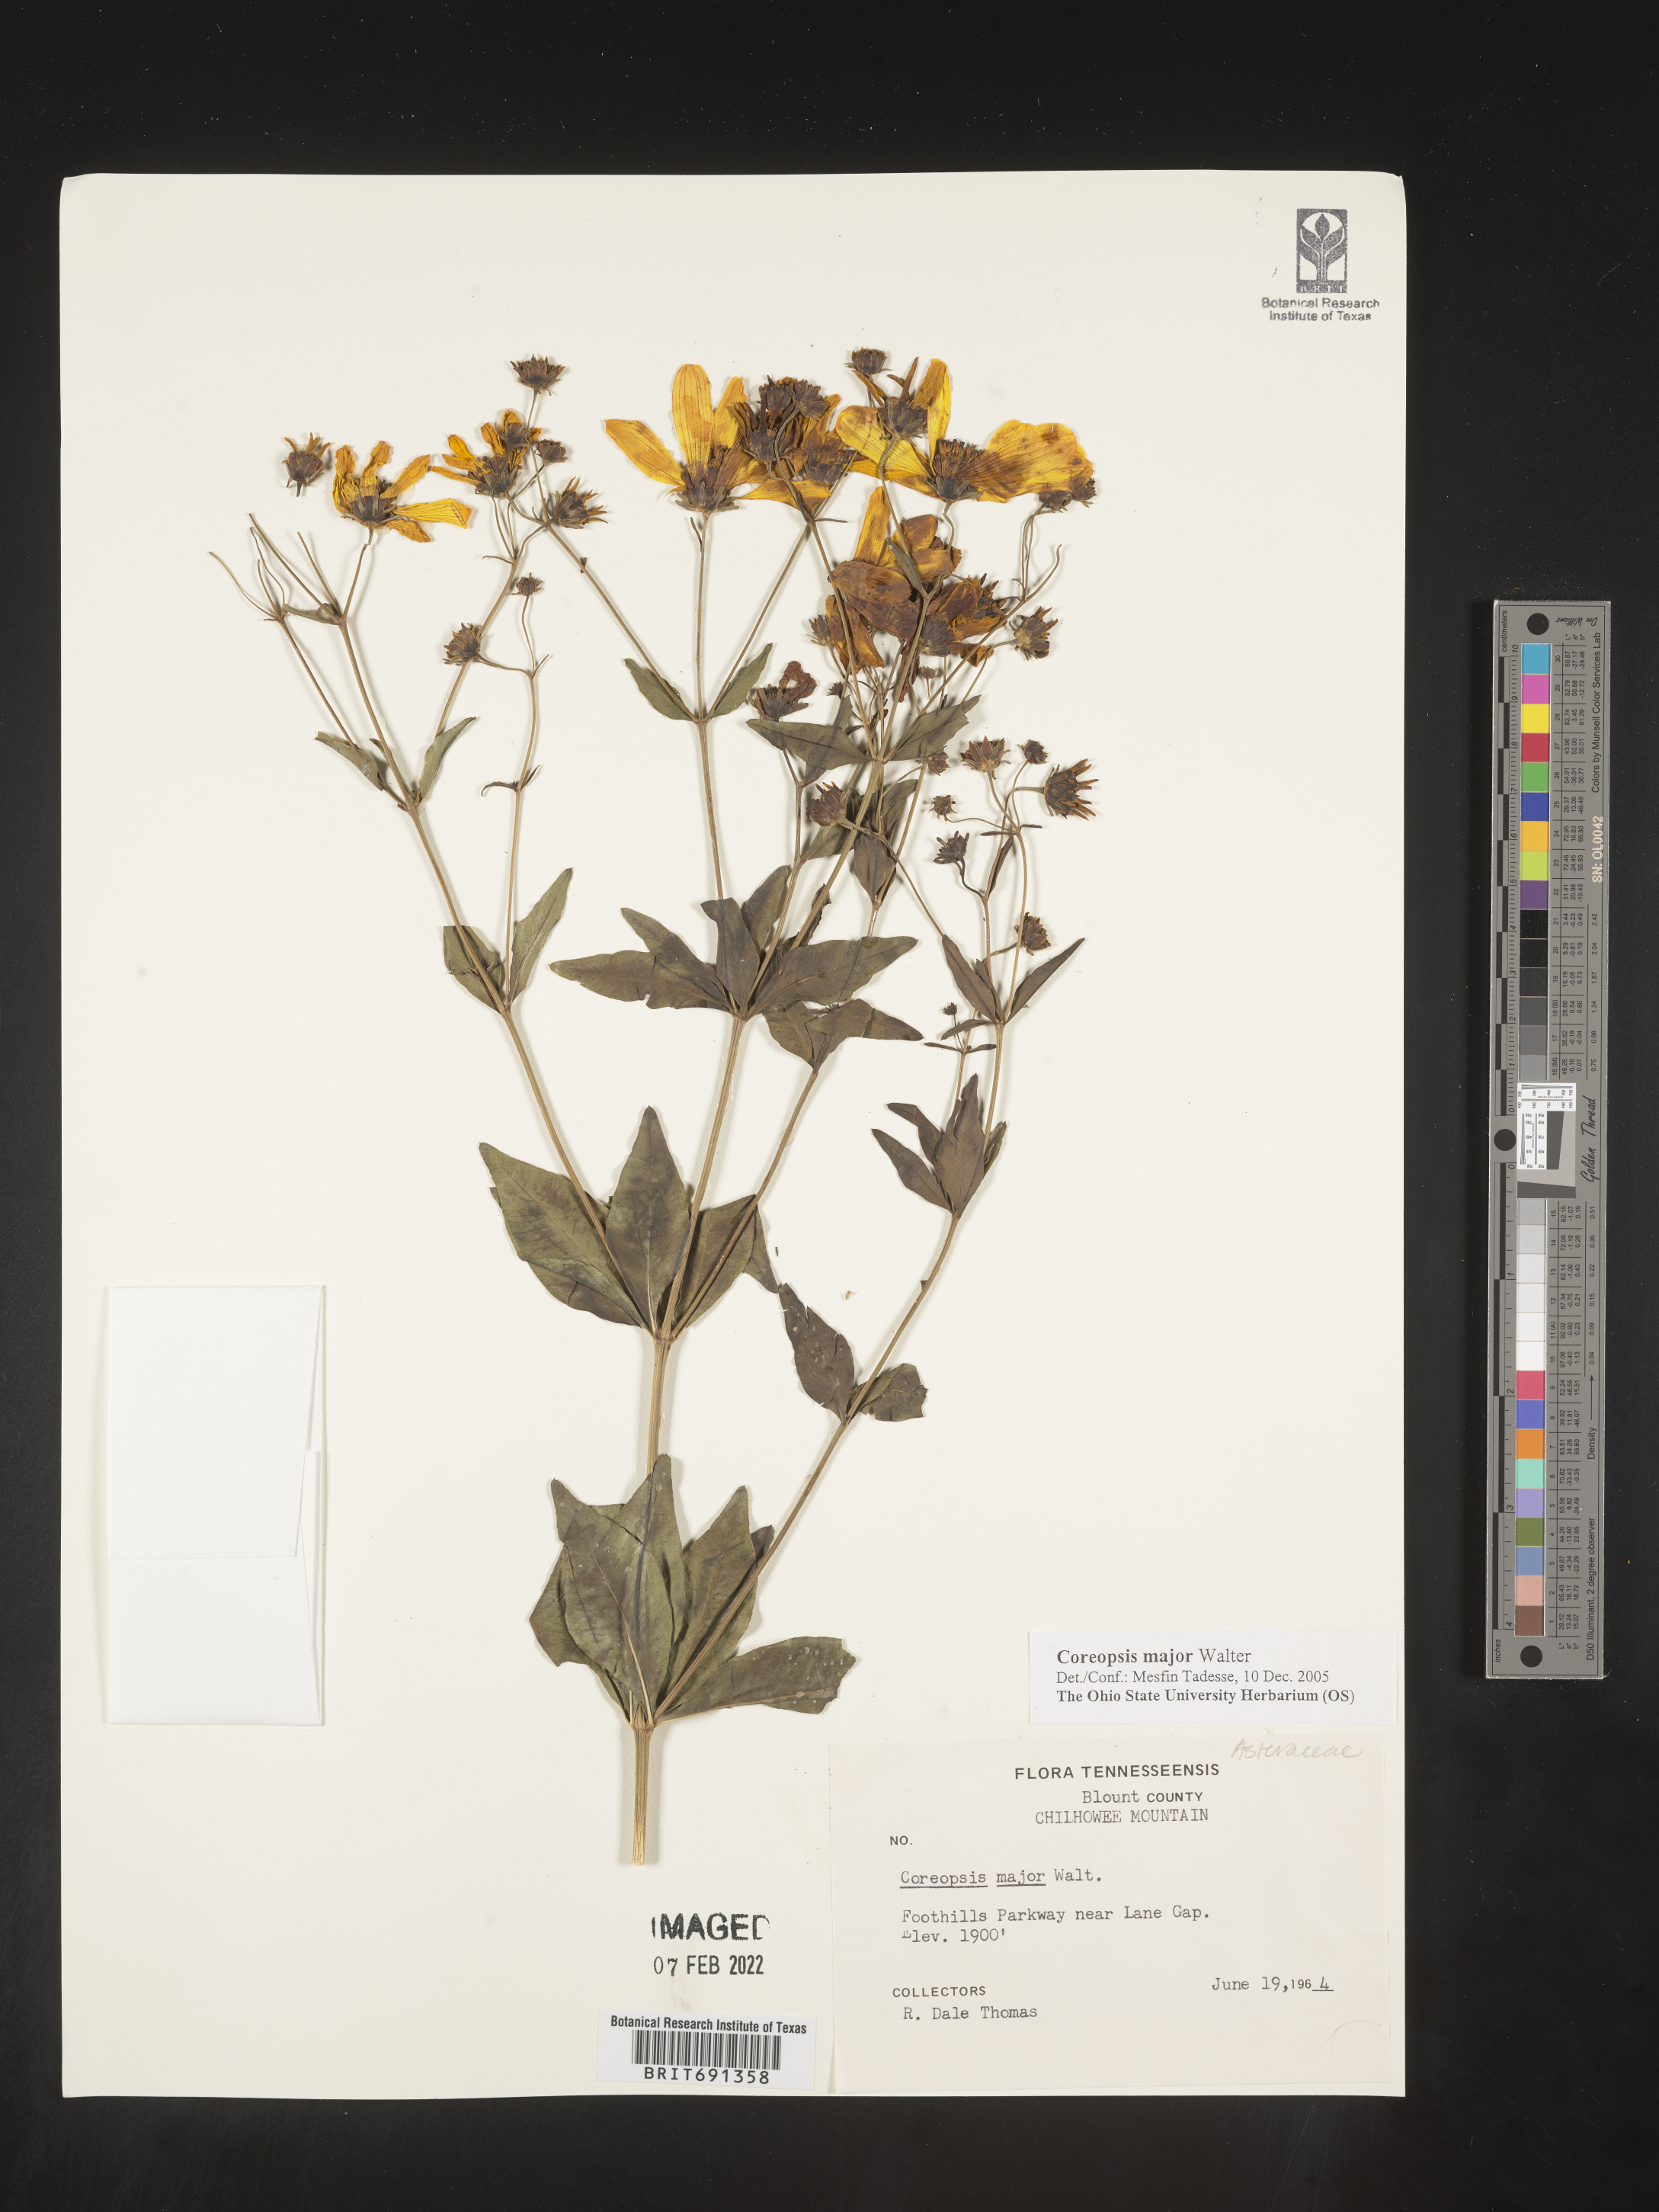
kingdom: Plantae
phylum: Tracheophyta
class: Magnoliopsida
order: Asterales
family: Asteraceae
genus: Coreopsis
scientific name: Coreopsis major
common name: Forest tickseed
